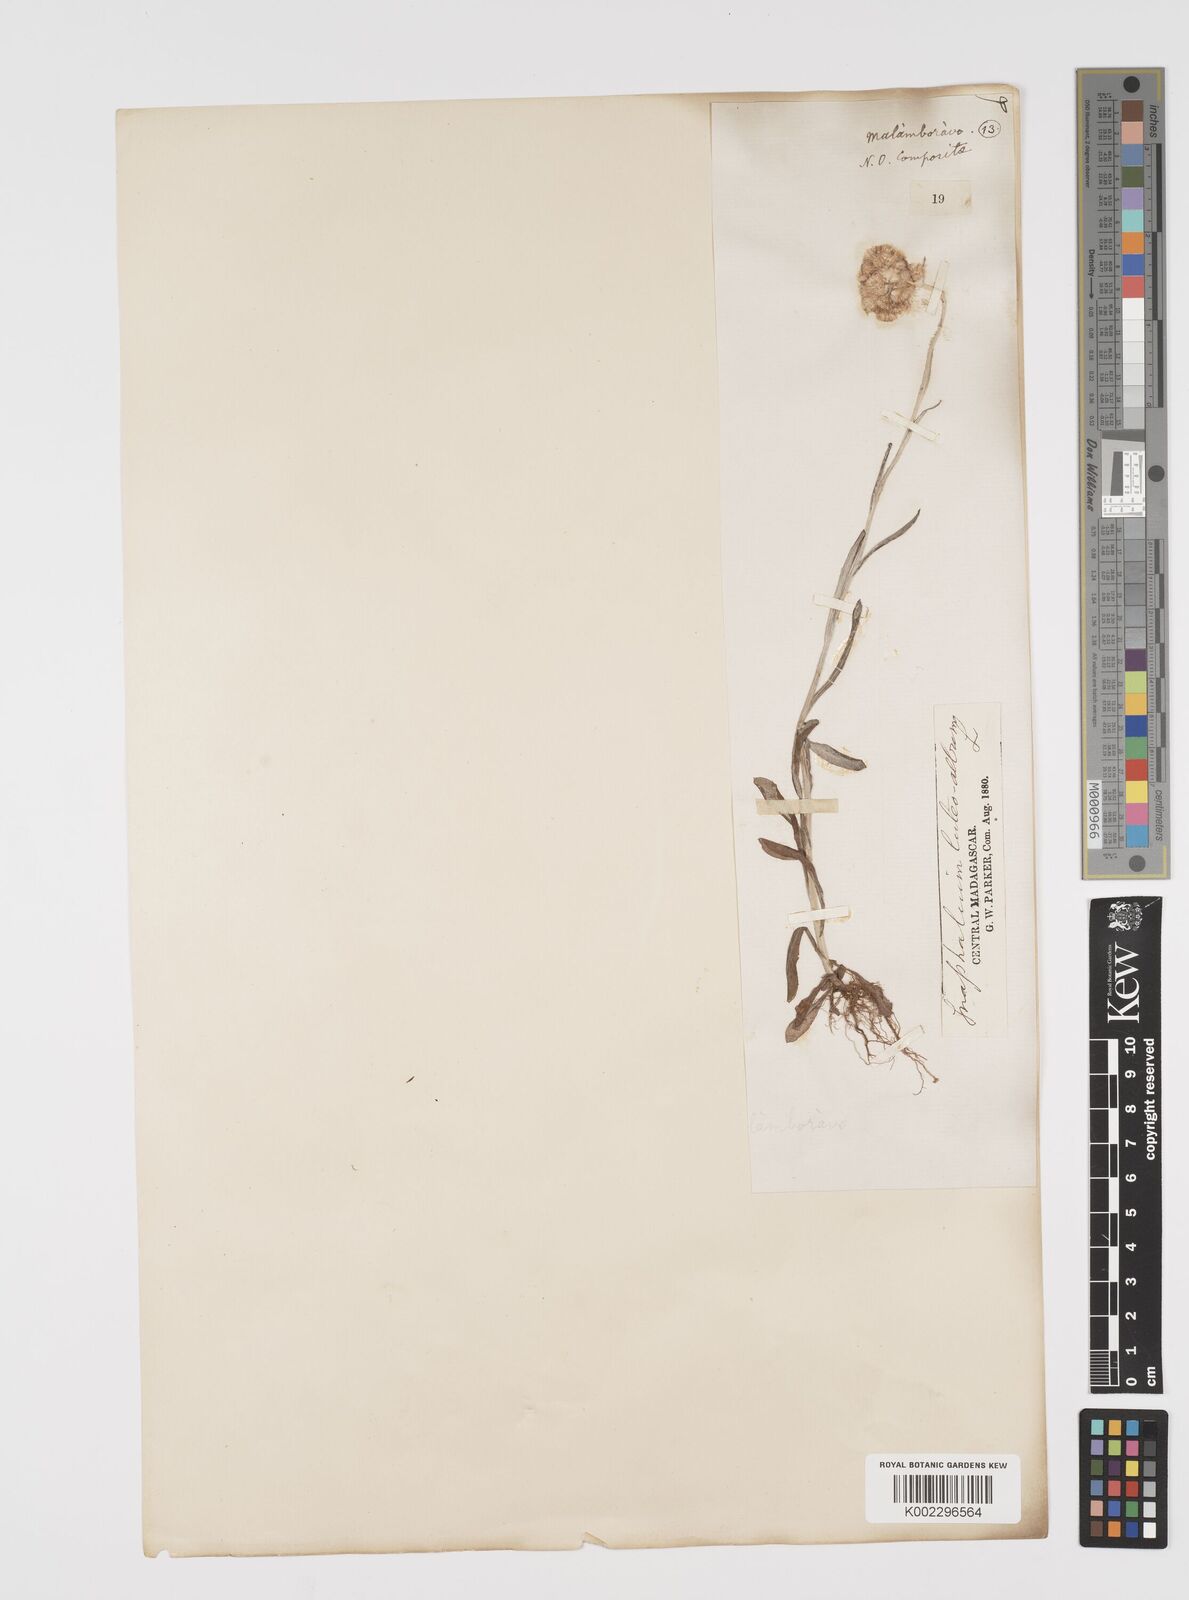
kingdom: Plantae
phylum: Tracheophyta
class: Magnoliopsida
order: Asterales
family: Asteraceae
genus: Helichrysum
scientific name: Helichrysum luteoalbum
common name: Daisy
